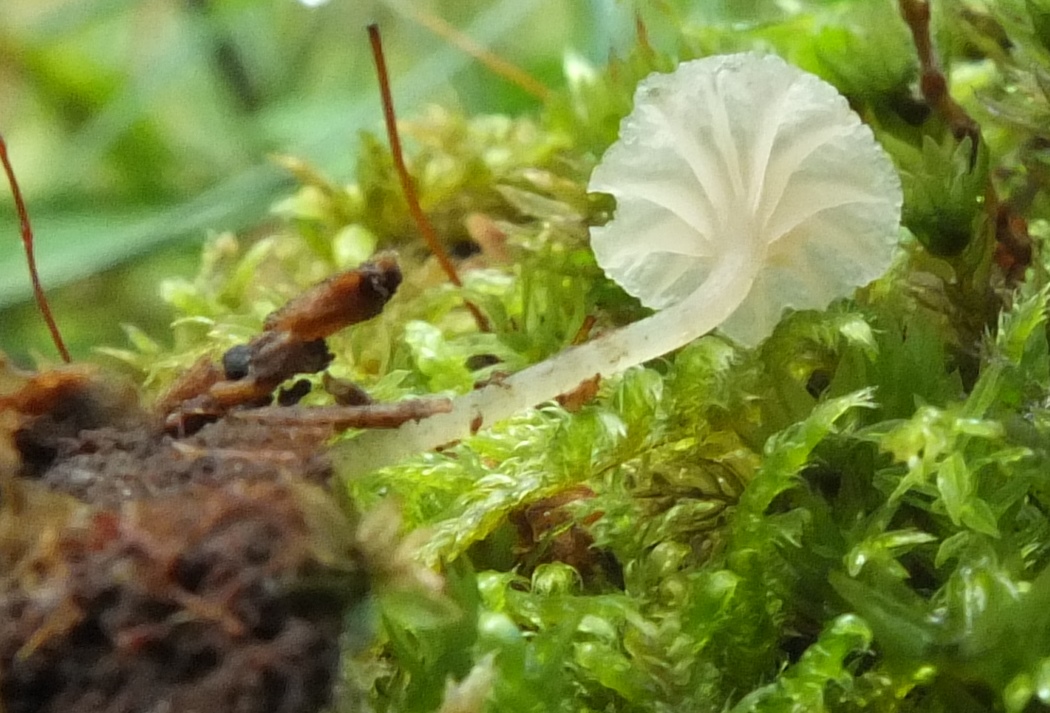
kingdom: Fungi
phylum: Basidiomycota
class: Agaricomycetes
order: Agaricales
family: Entolomataceae
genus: Entoloma
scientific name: Entoloma rhodocylix
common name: fjernbladet rødblad
